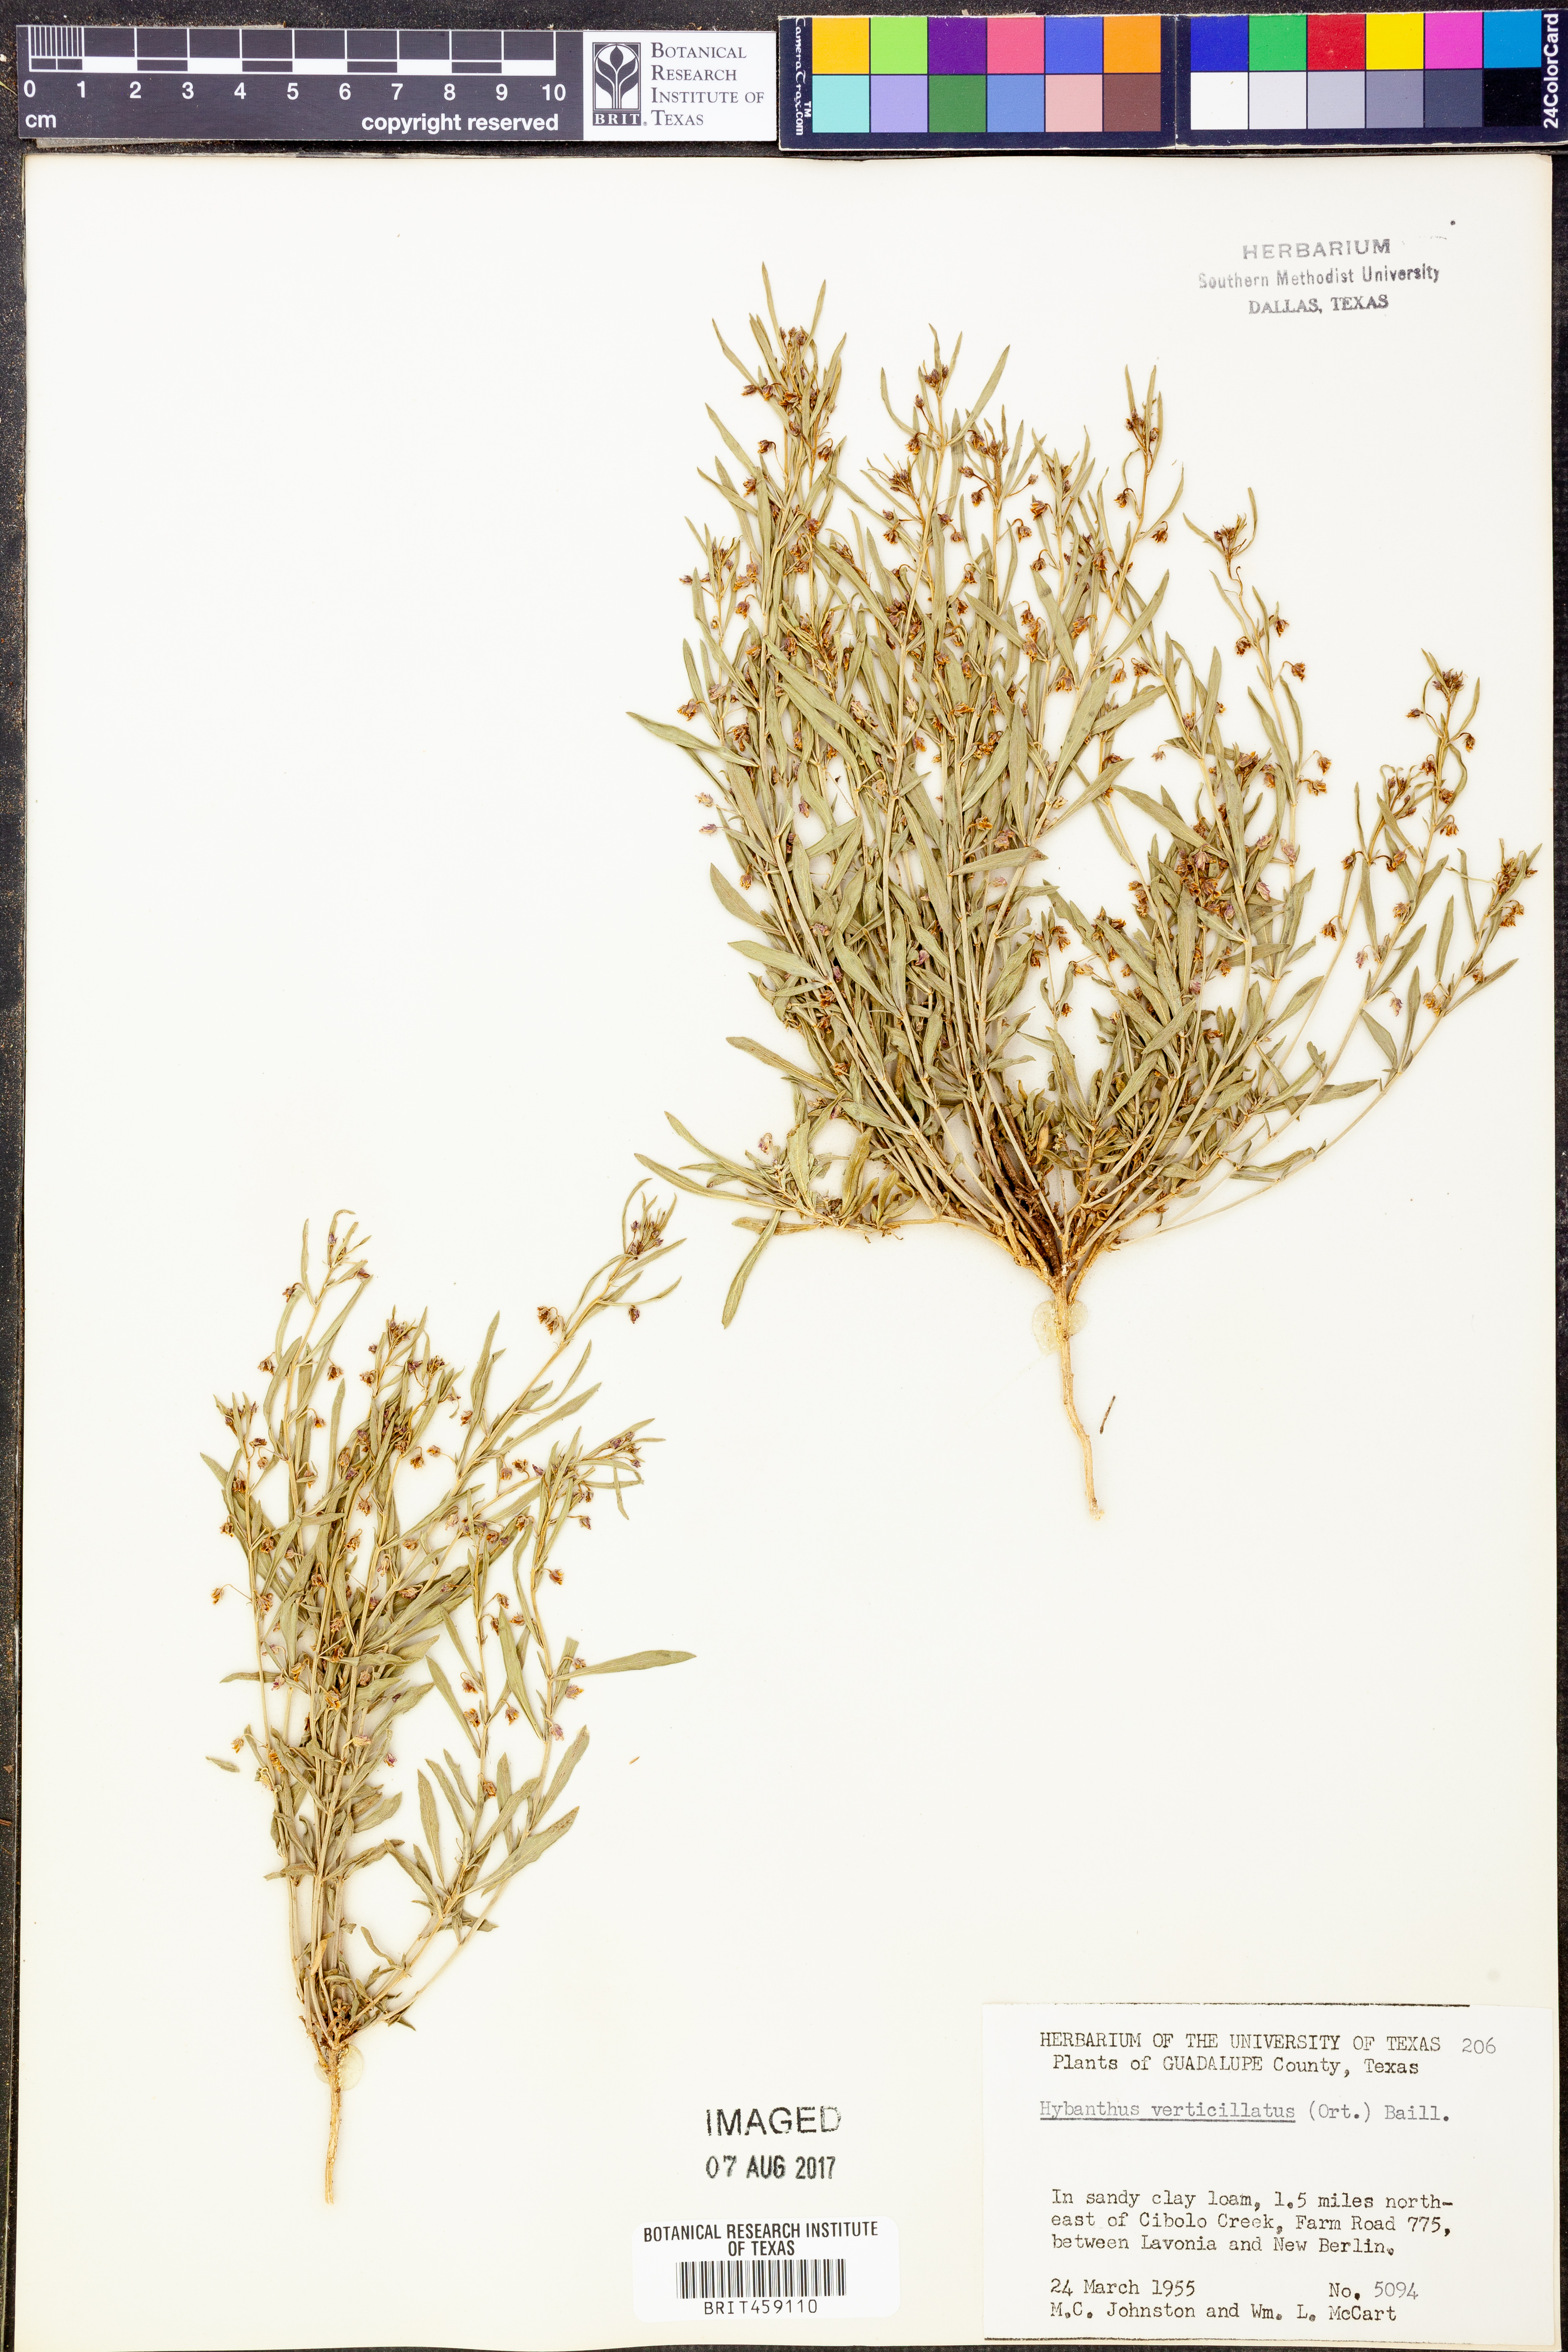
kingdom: Plantae
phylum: Tracheophyta
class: Magnoliopsida
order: Malpighiales
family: Violaceae
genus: Pombalia
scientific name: Pombalia verticillata
